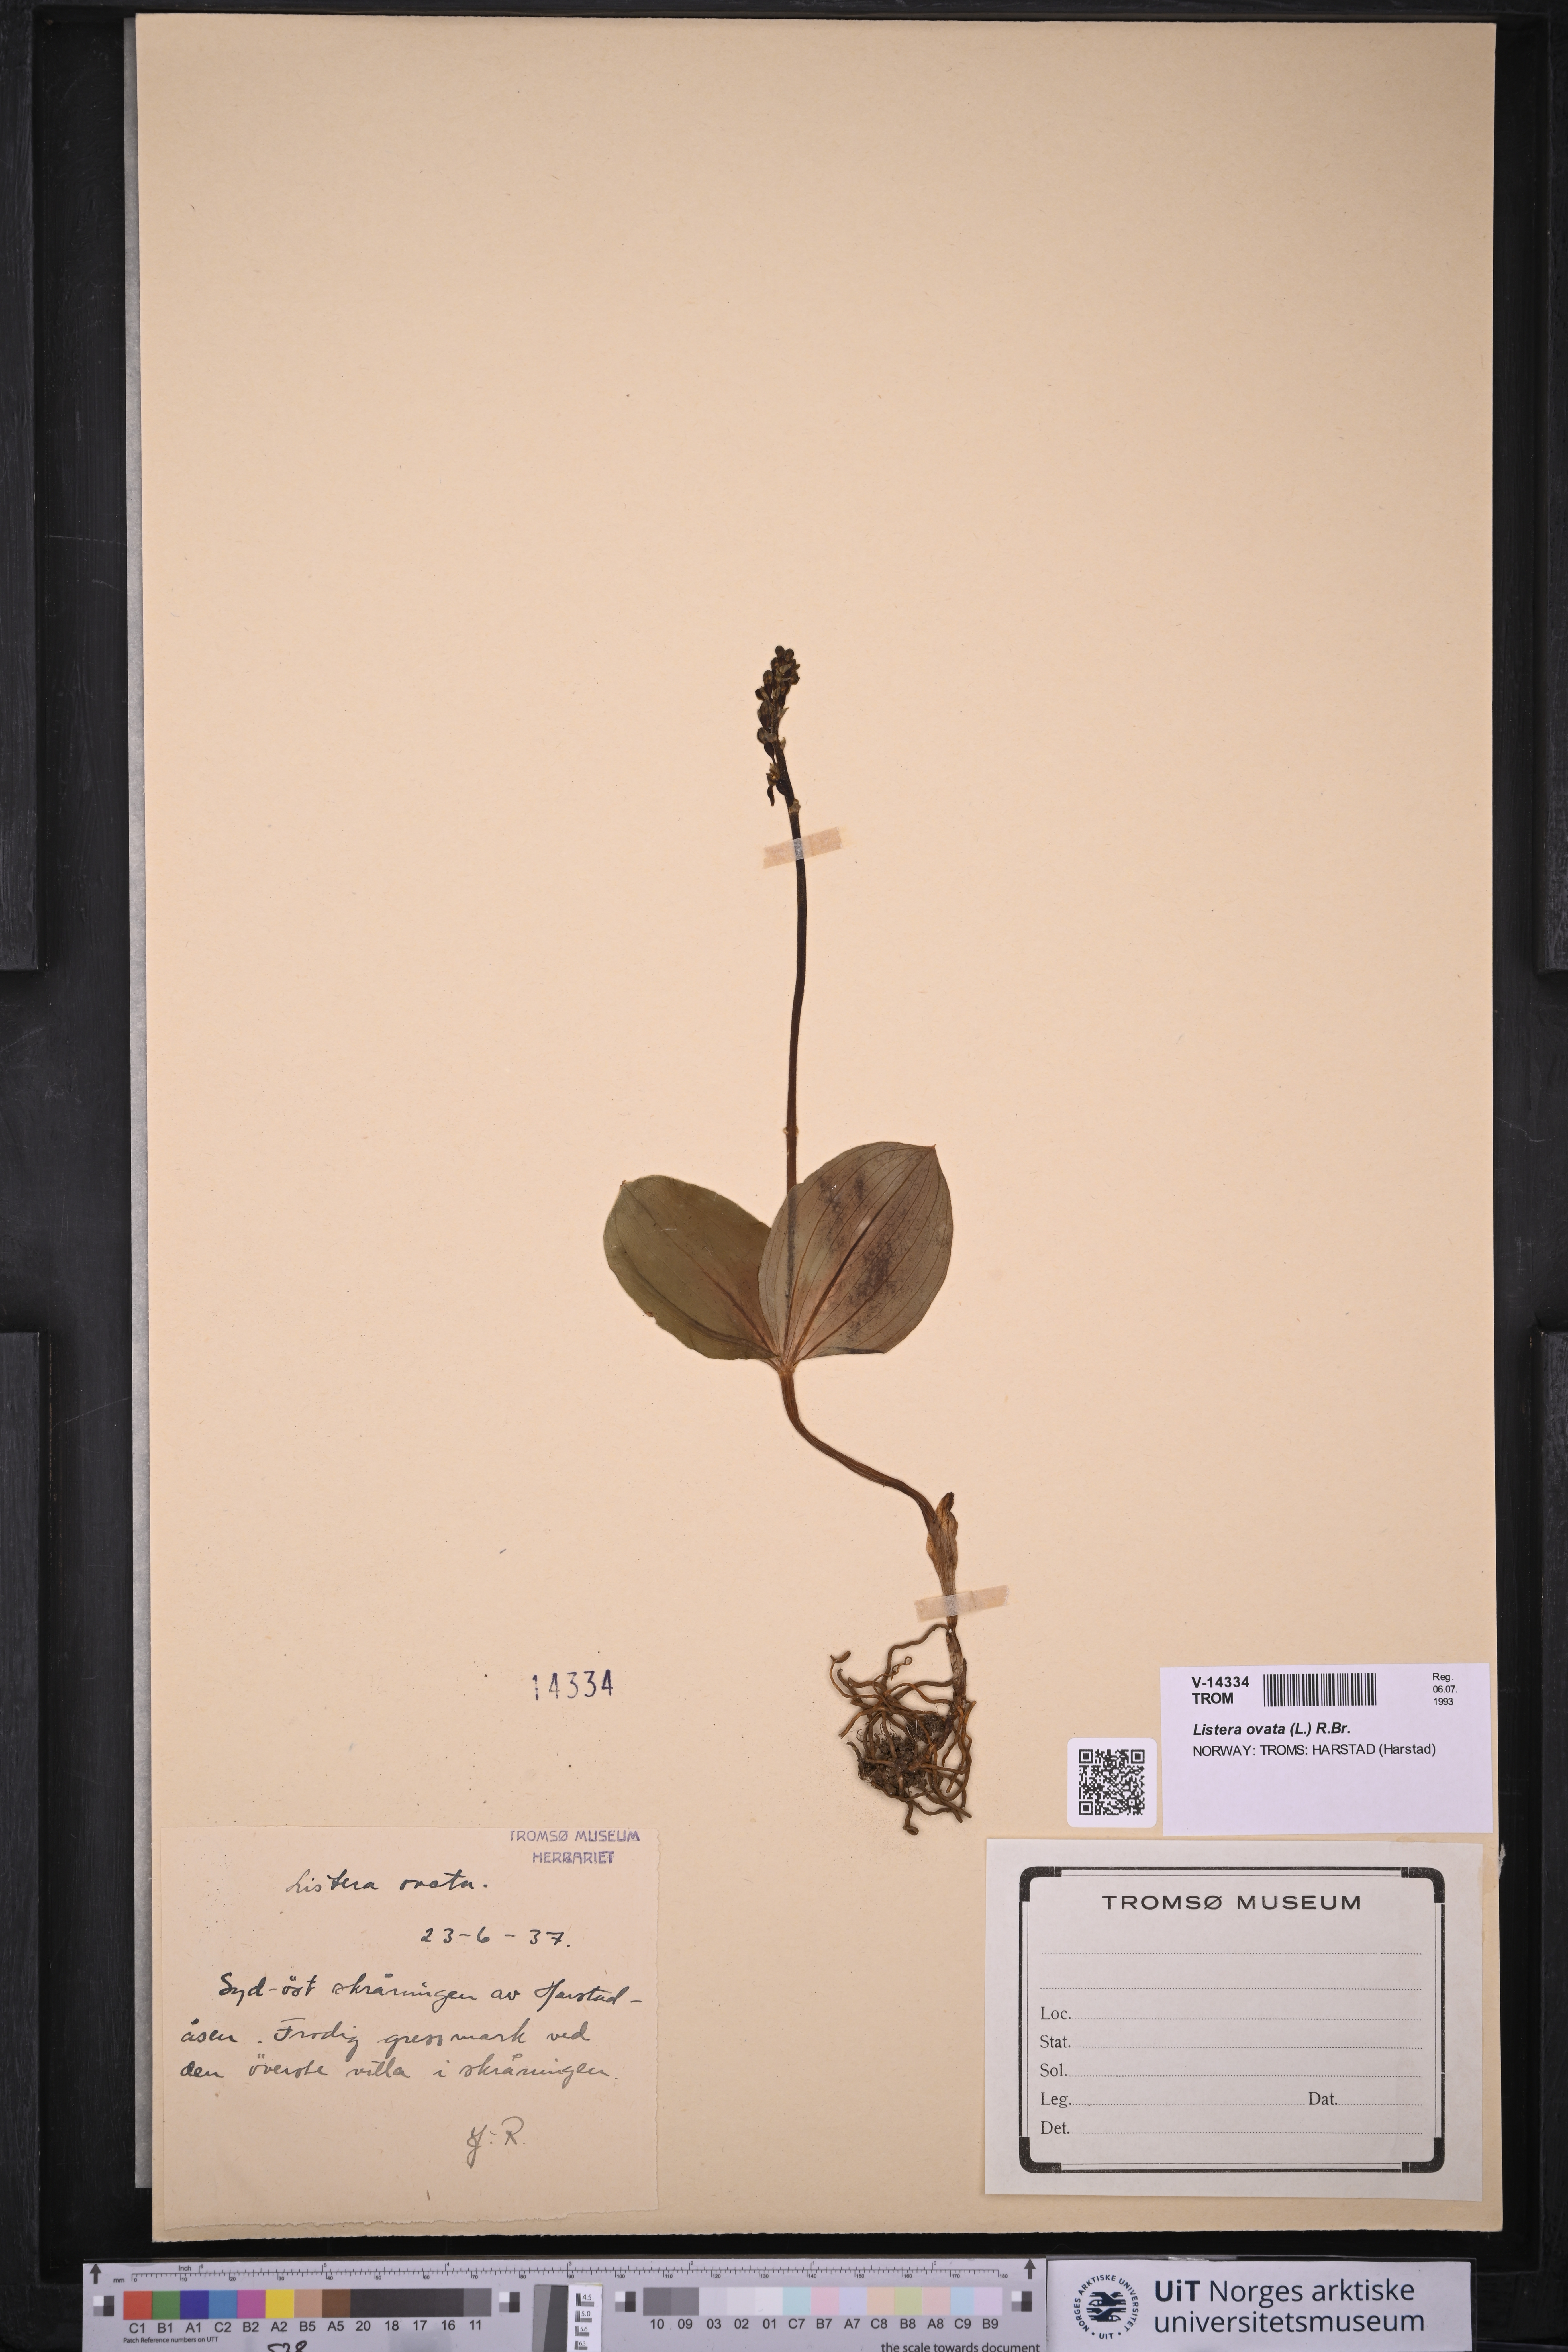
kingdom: Plantae
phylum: Tracheophyta
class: Liliopsida
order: Asparagales
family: Orchidaceae
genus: Neottia
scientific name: Neottia ovata
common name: Common twayblade
